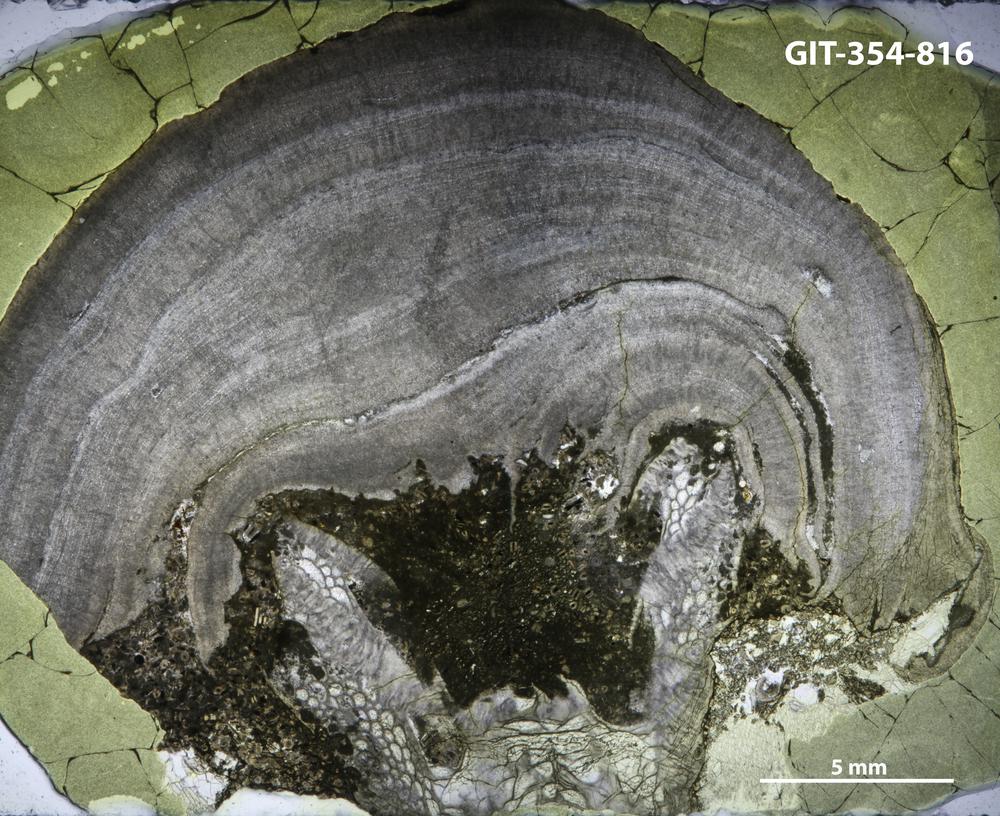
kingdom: Animalia
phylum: Porifera
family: Densastromatidae
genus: Densastroma
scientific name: Densastroma
